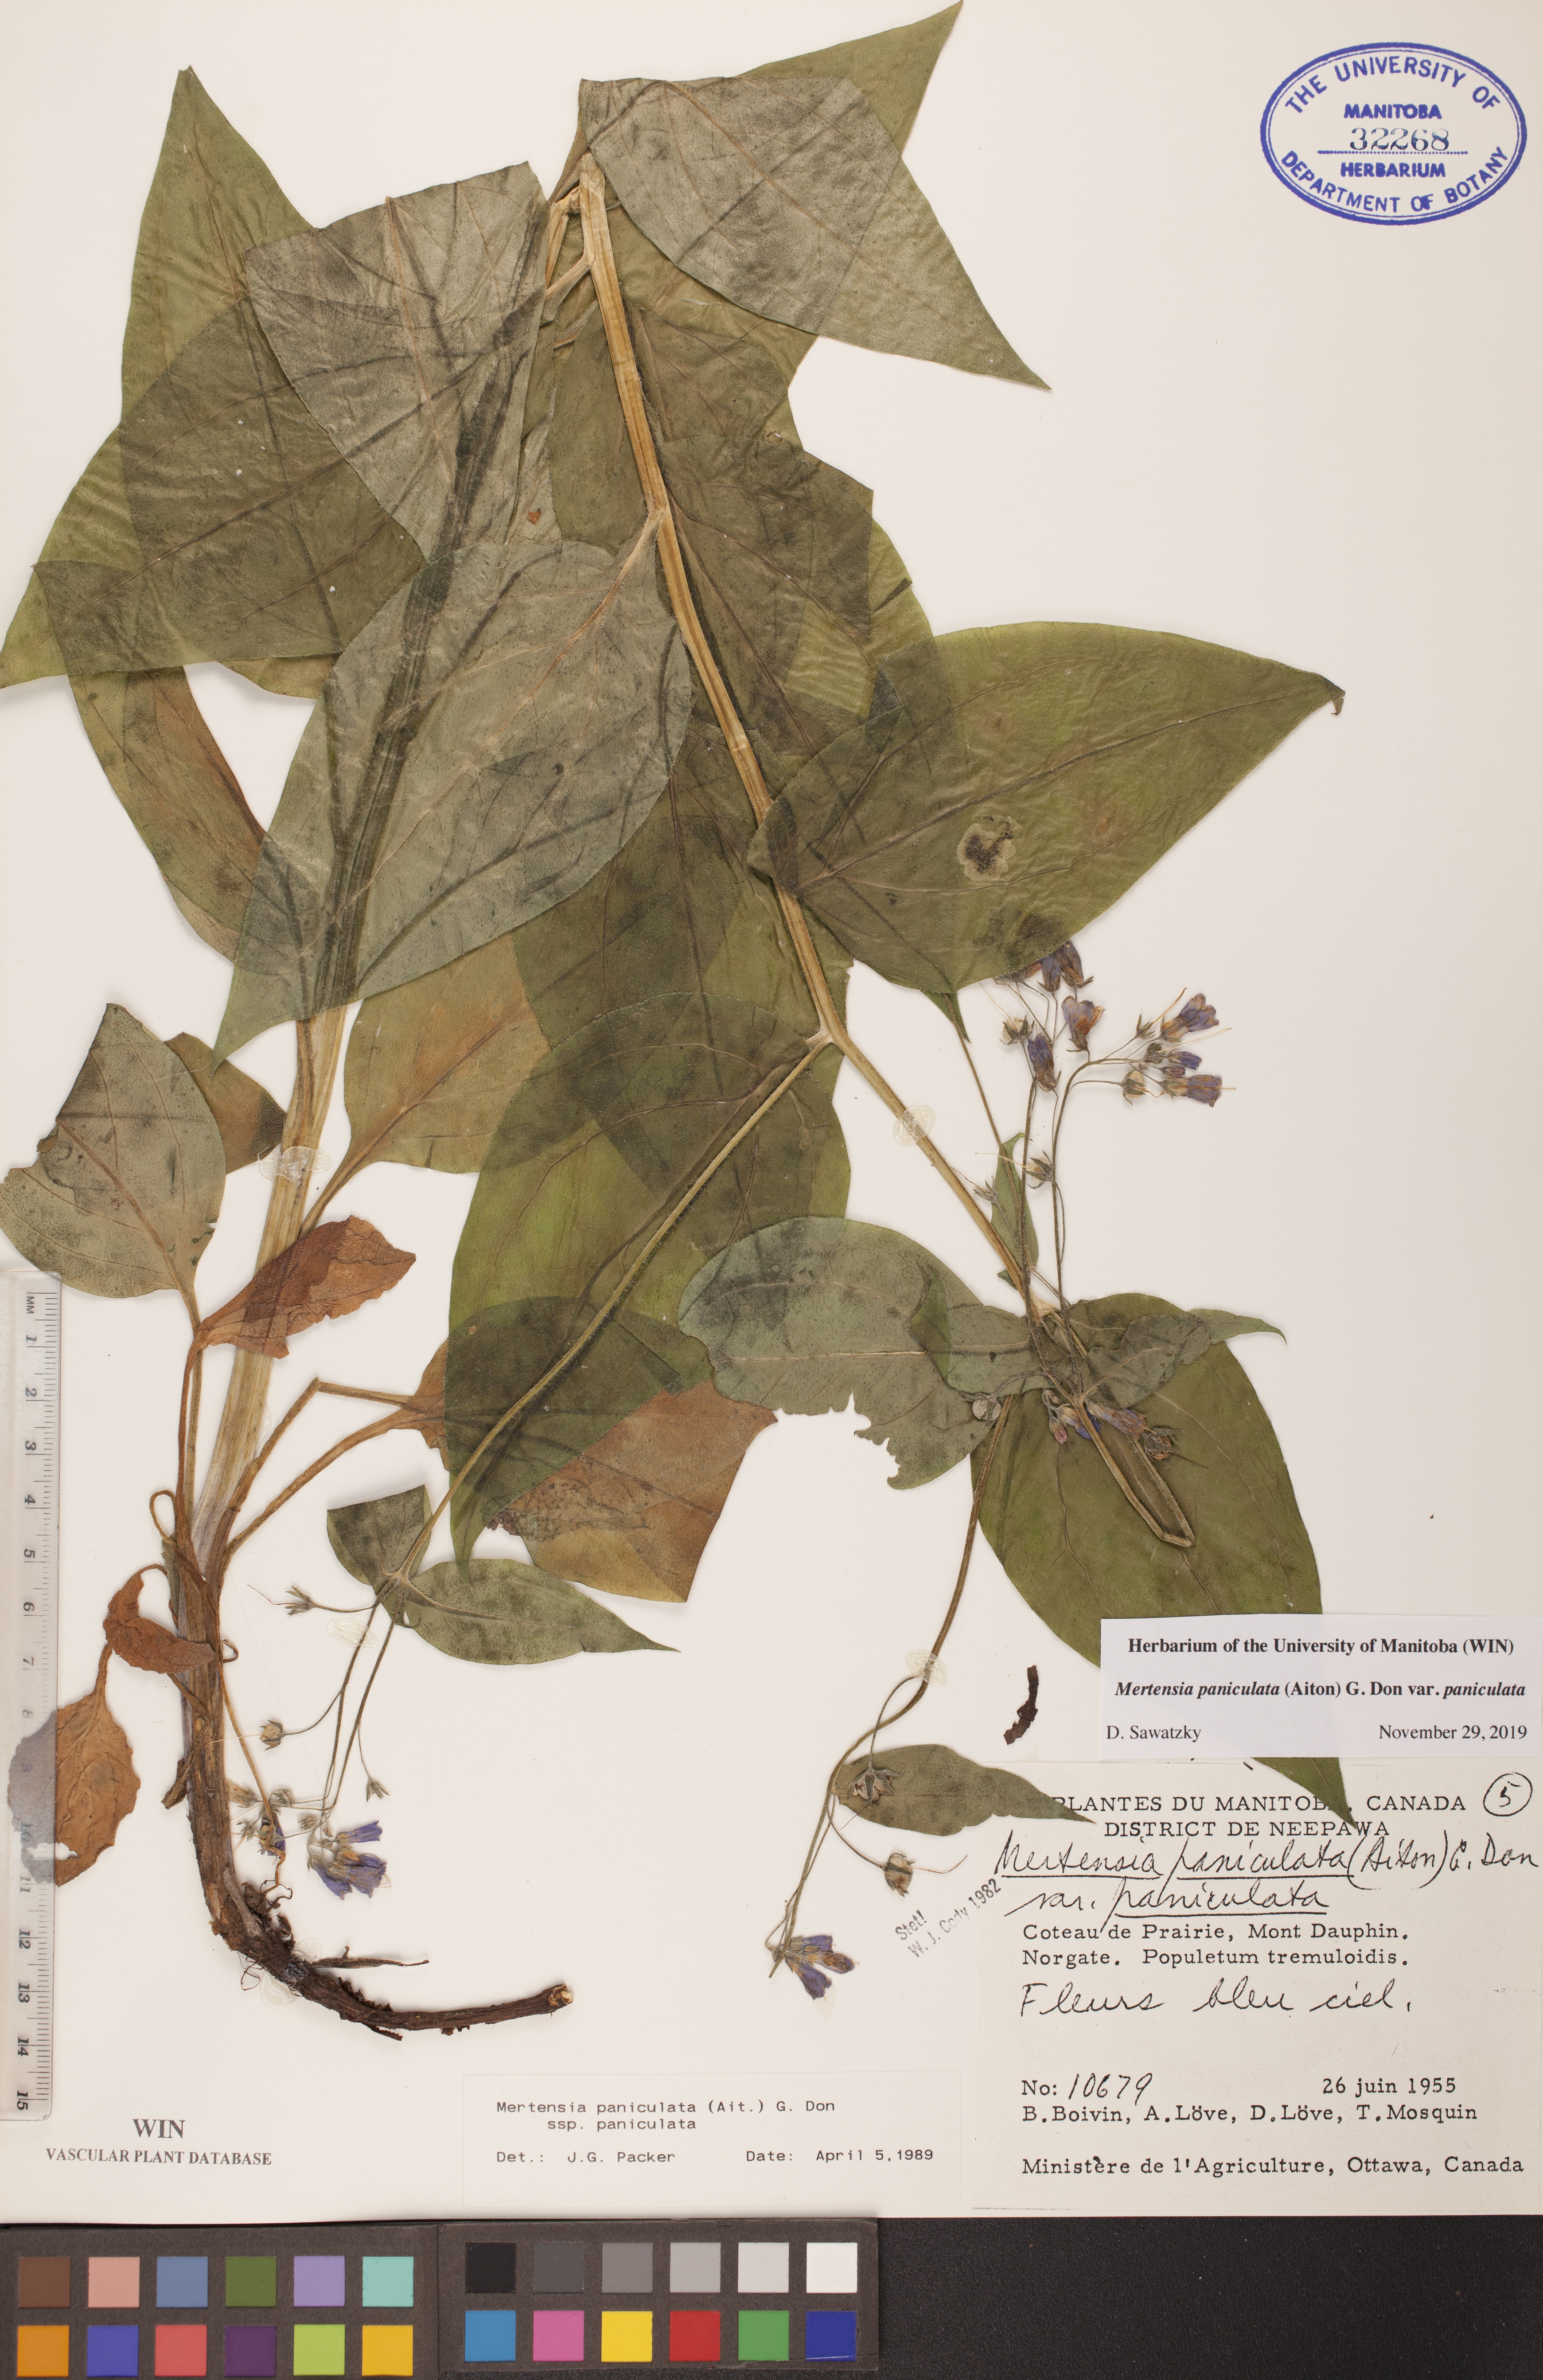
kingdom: Plantae
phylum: Tracheophyta
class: Magnoliopsida
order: Boraginales
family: Boraginaceae
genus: Mertensia
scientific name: Mertensia paniculata
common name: Panicled bluebells
